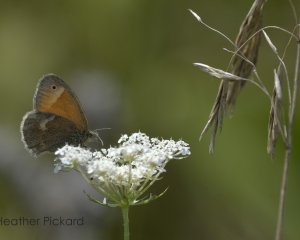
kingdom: Animalia
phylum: Arthropoda
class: Insecta
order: Lepidoptera
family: Nymphalidae
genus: Coenonympha
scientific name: Coenonympha tullia
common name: Large Heath
